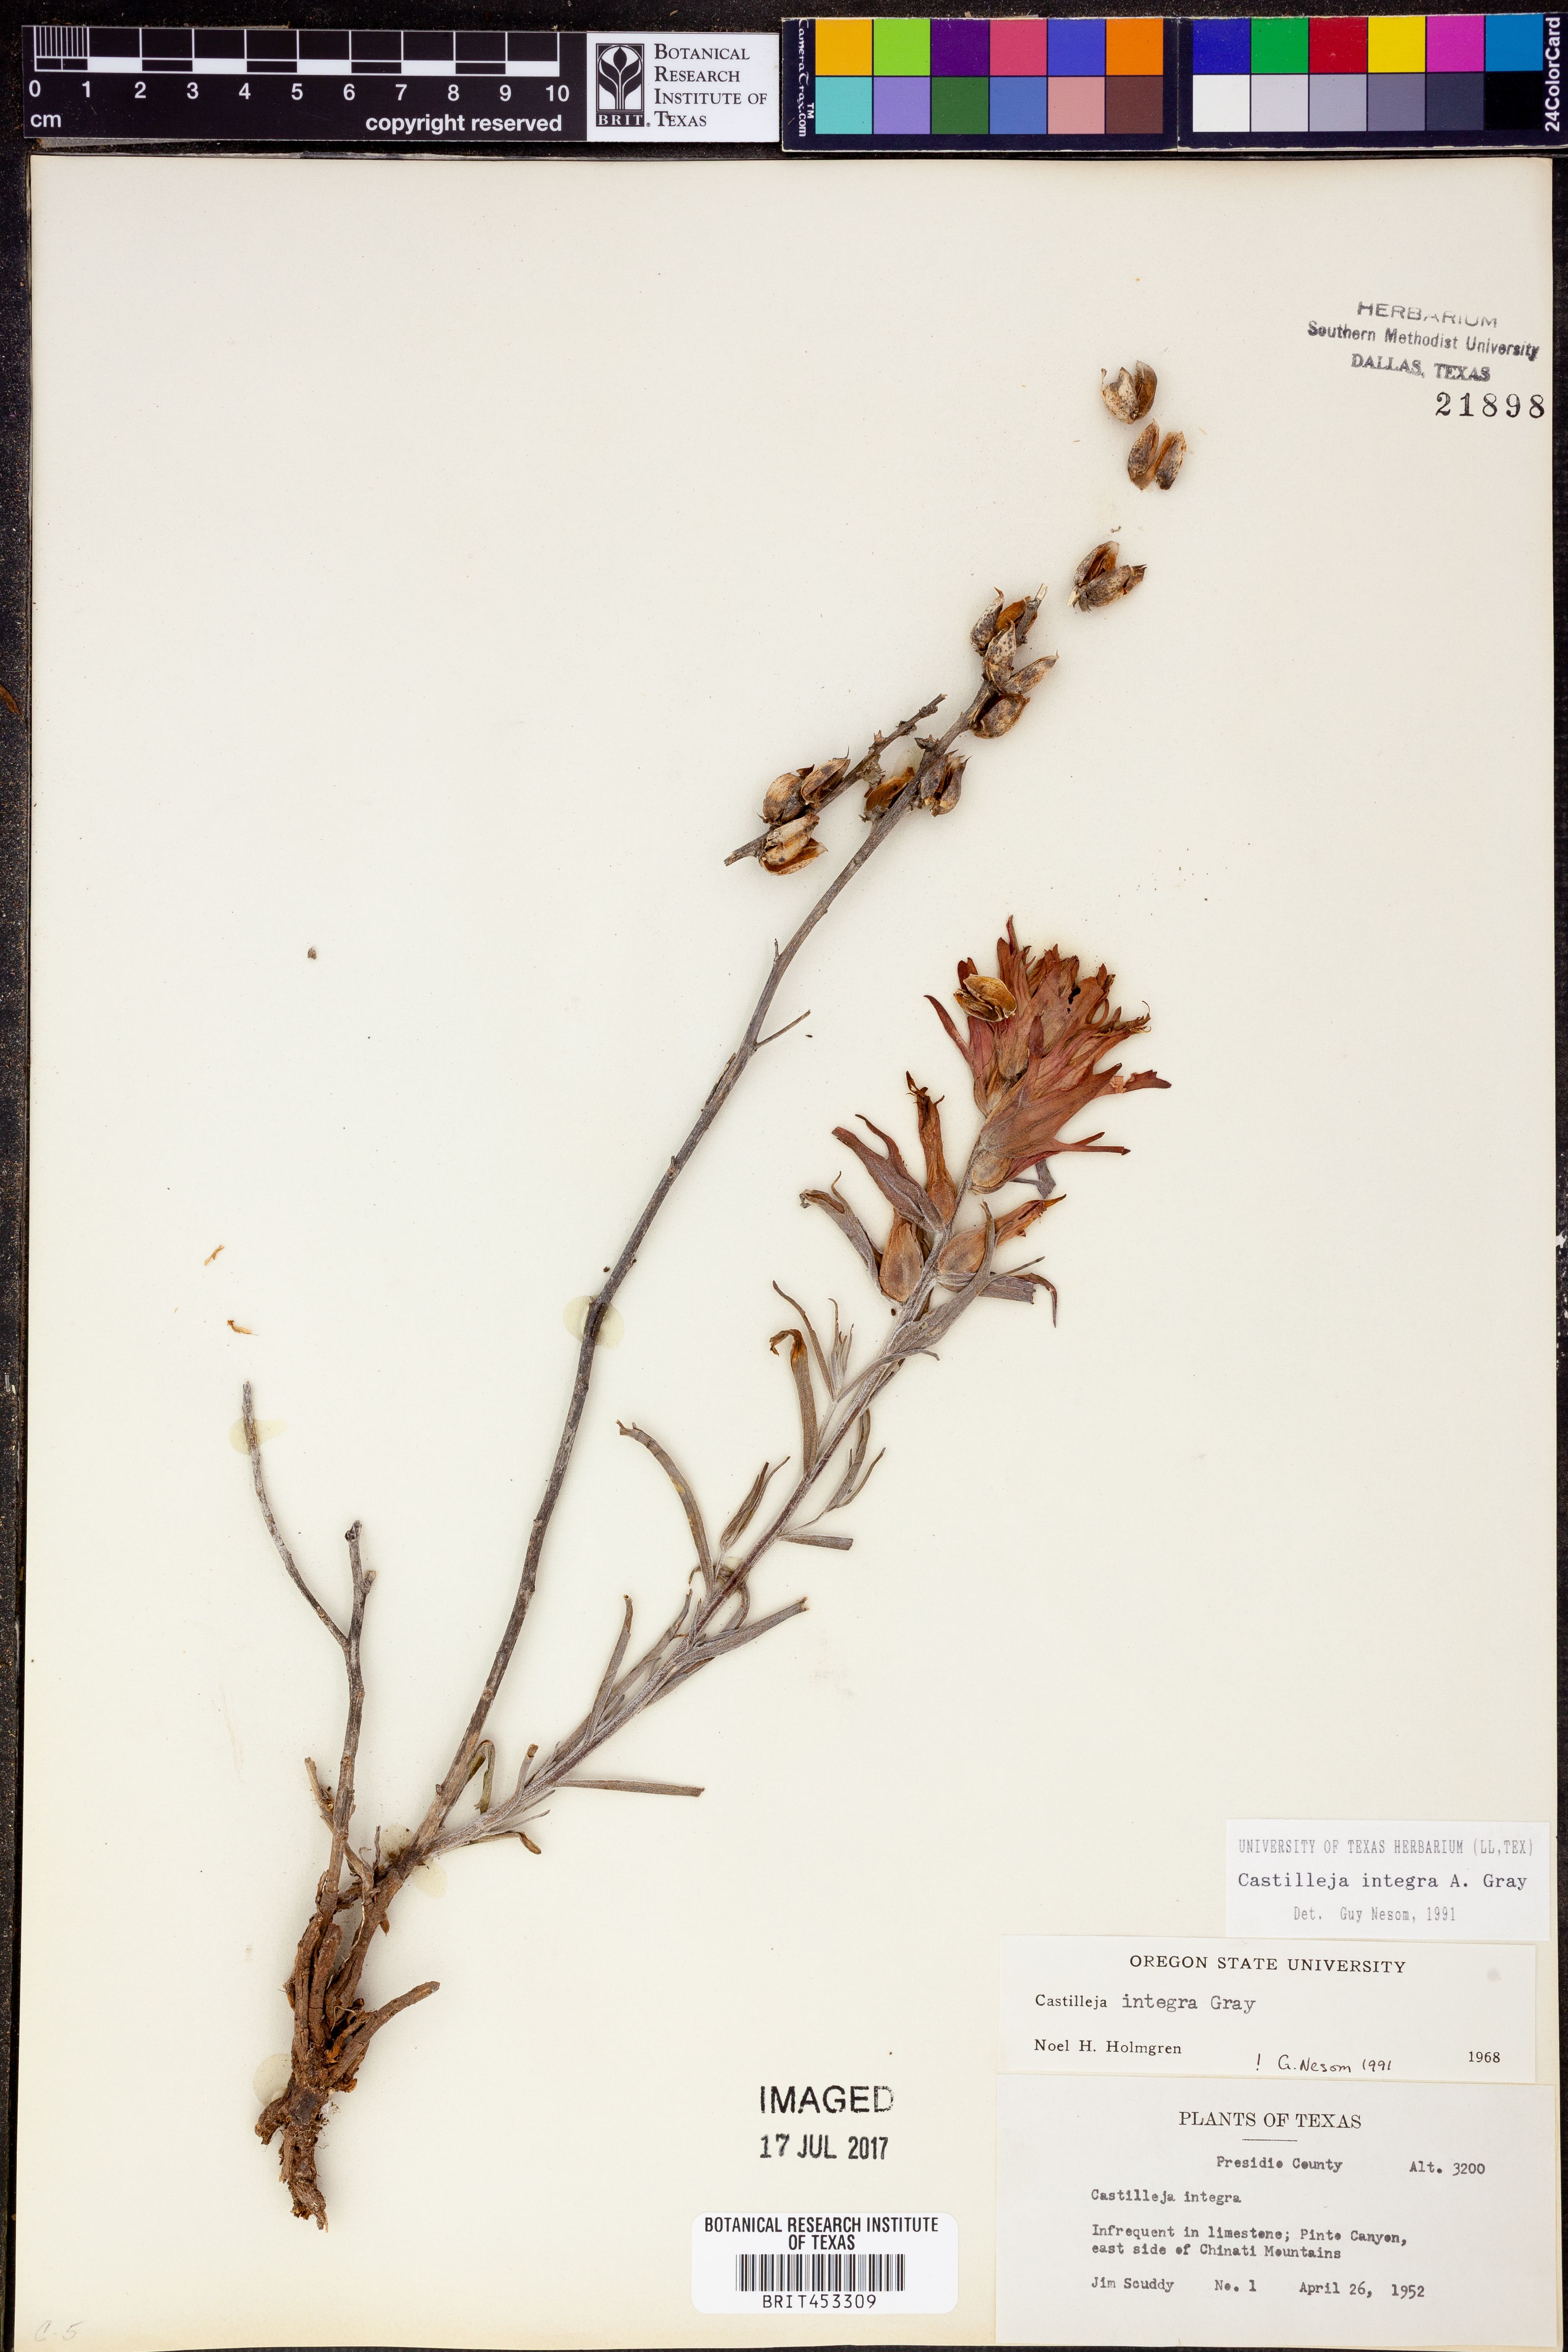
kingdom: Plantae
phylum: Tracheophyta
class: Magnoliopsida
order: Lamiales
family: Orobanchaceae
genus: Castilleja
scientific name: Castilleja integra
